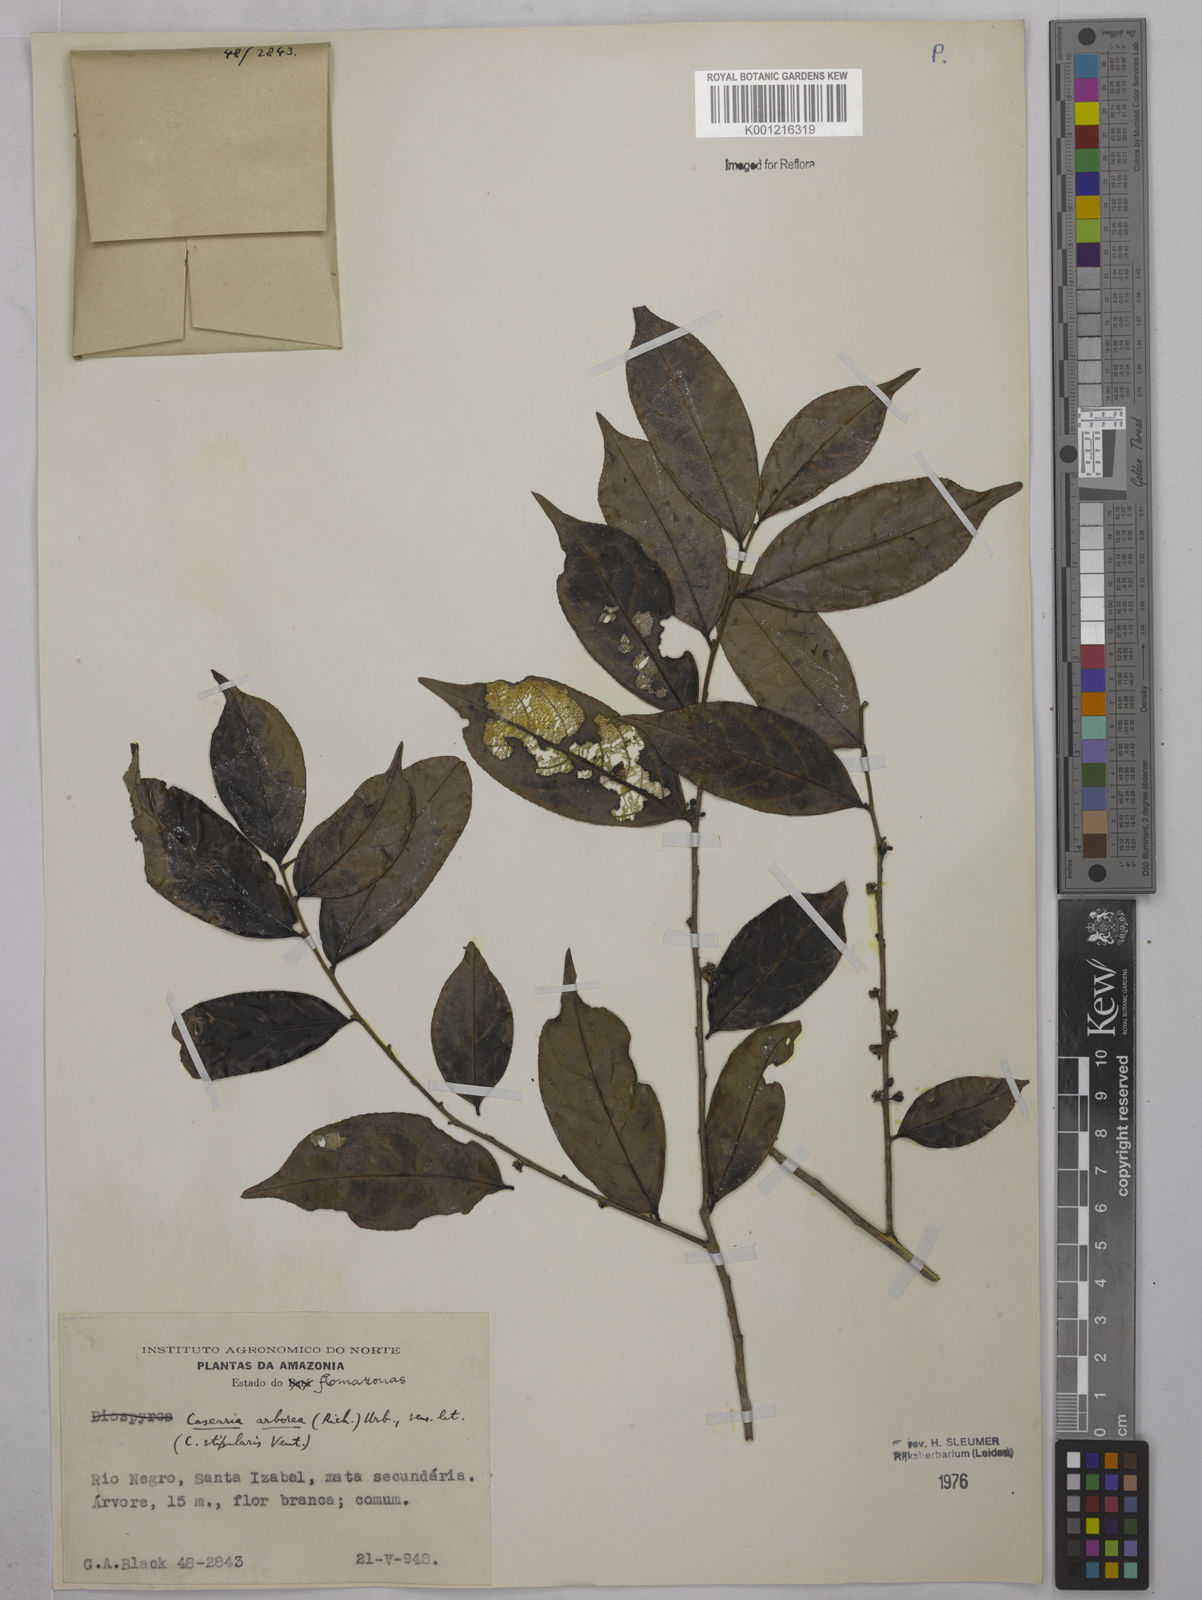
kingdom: Plantae
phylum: Tracheophyta
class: Magnoliopsida
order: Malpighiales
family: Salicaceae
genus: Casearia
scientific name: Casearia arborea
